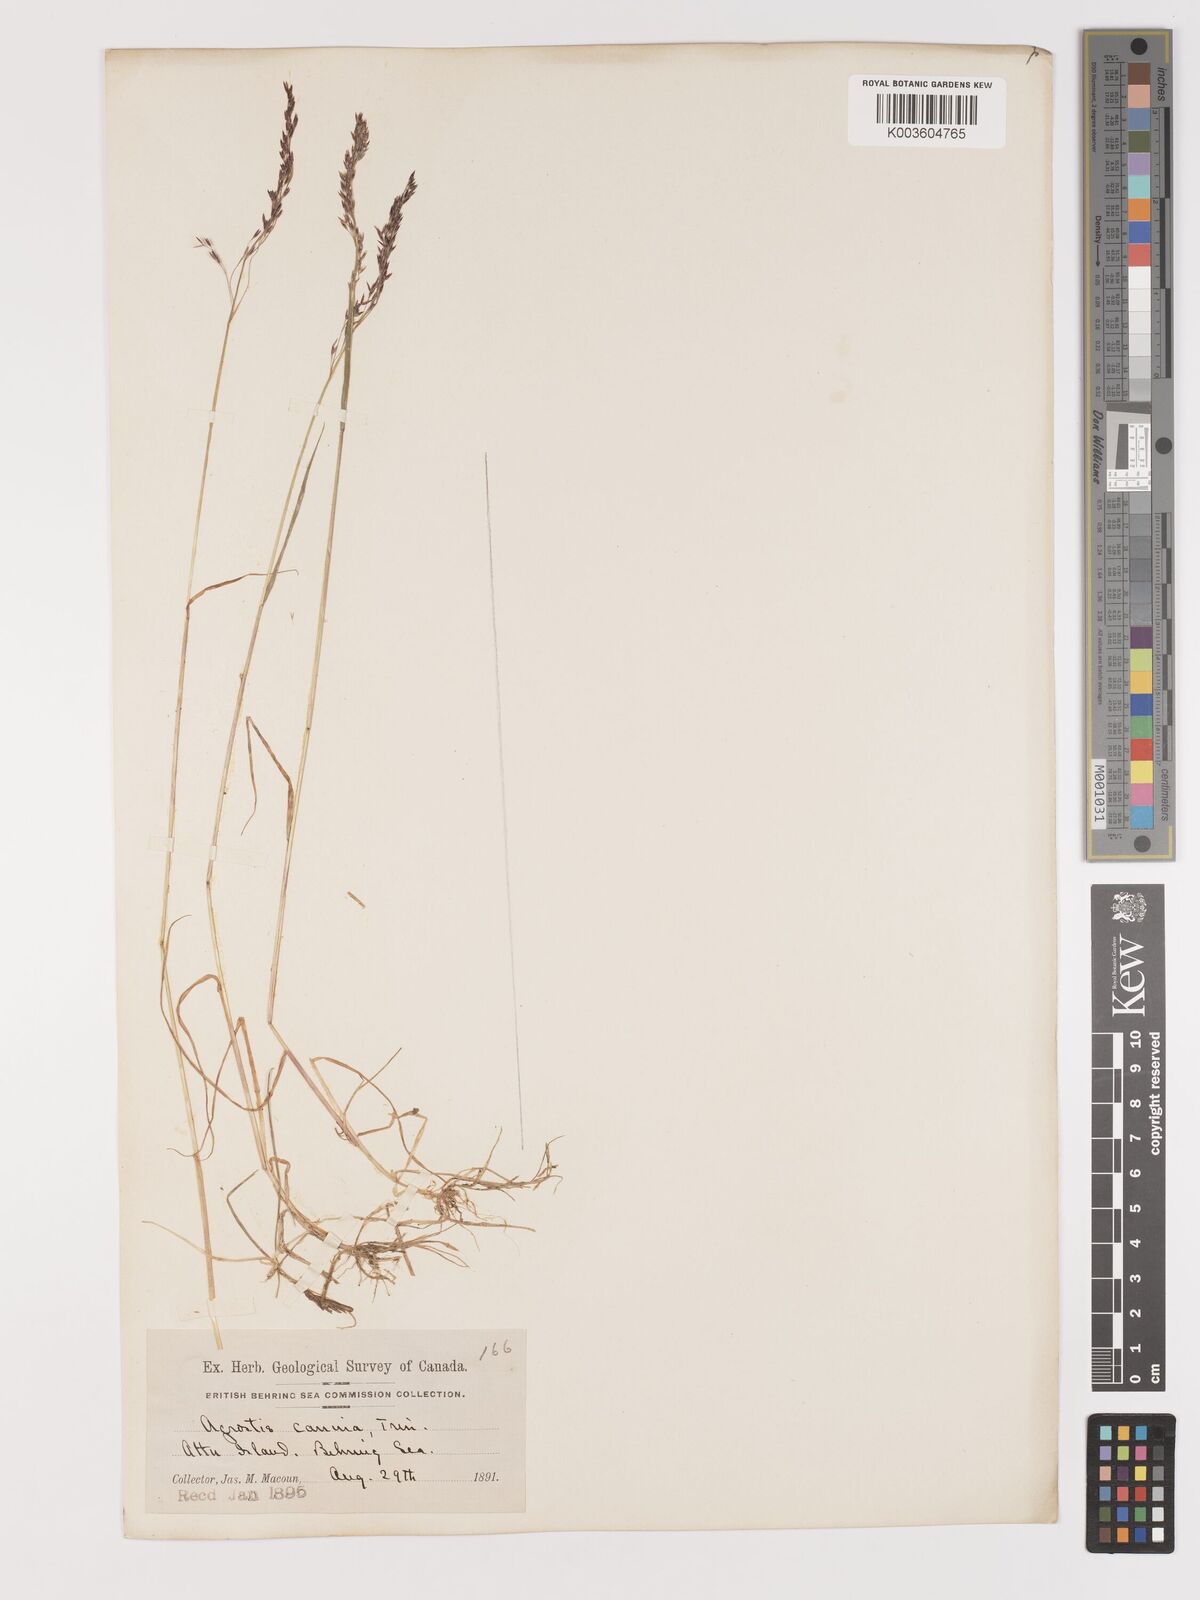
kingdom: Plantae
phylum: Tracheophyta
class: Liliopsida
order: Poales
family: Poaceae
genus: Agrostis
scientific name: Agrostis canina
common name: Velvet bent
